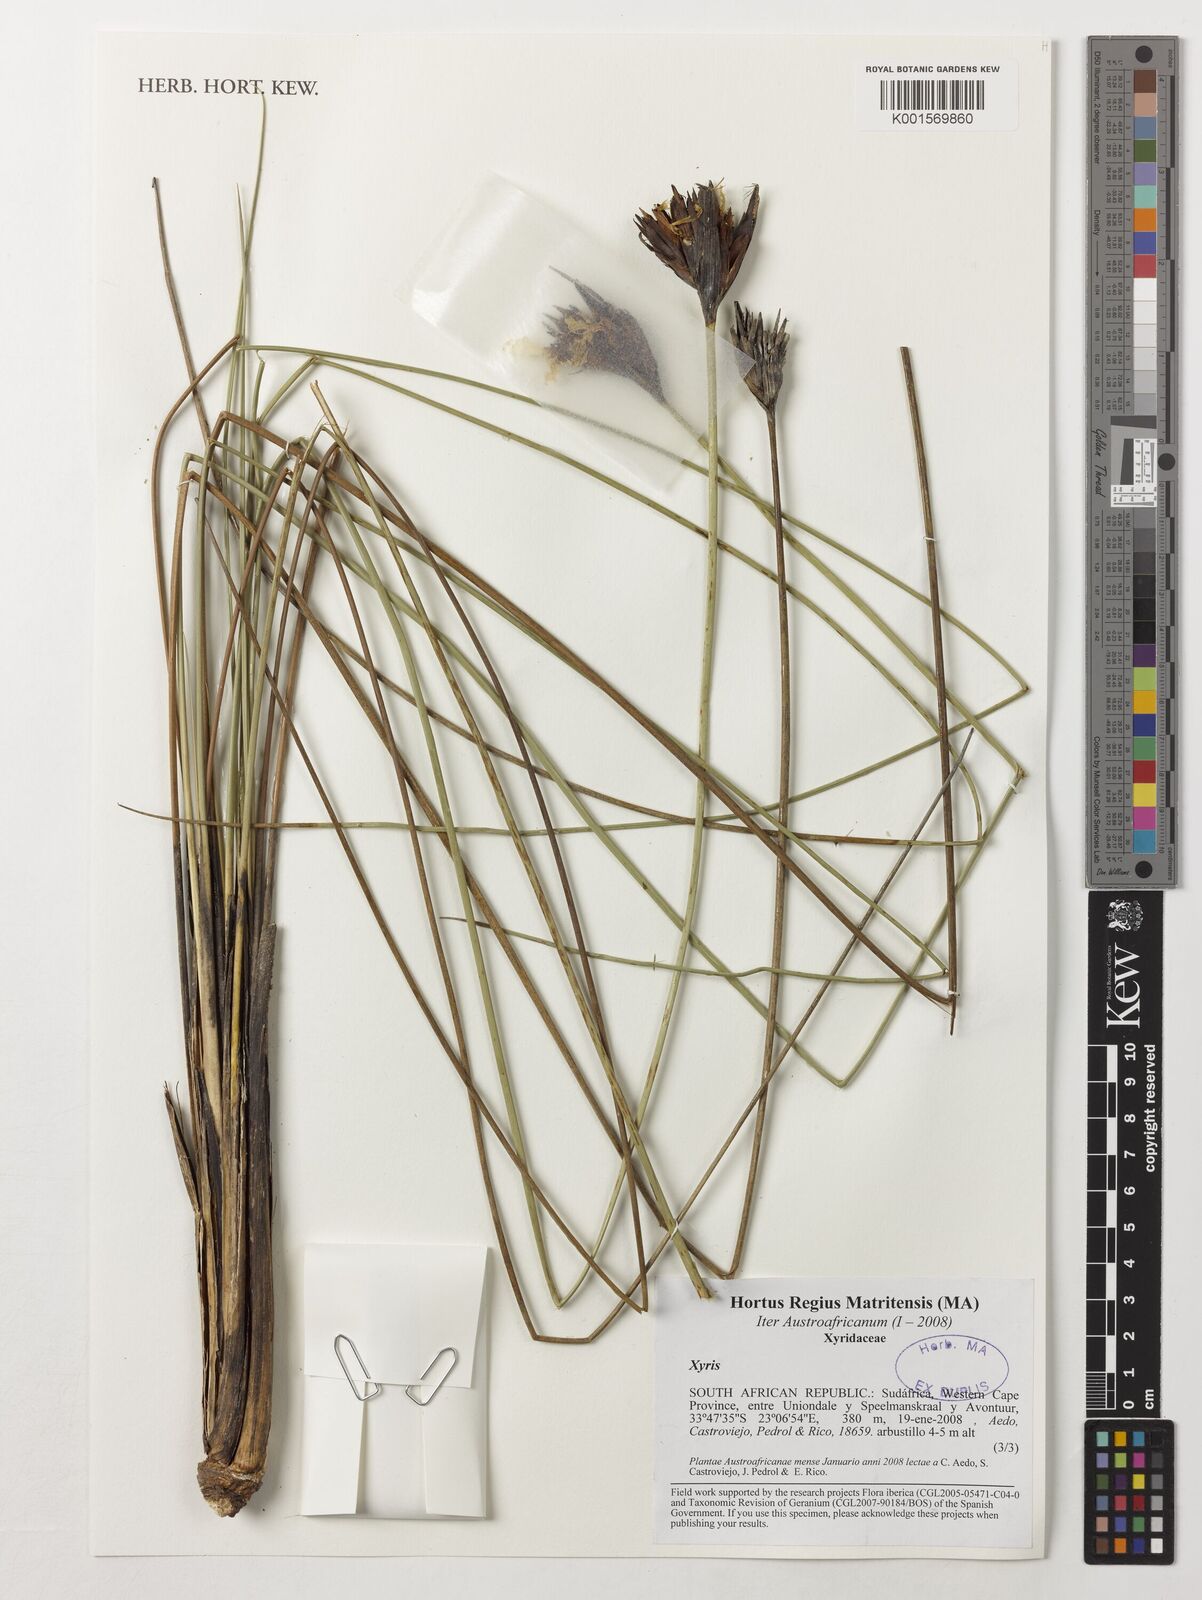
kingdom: Plantae
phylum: Tracheophyta
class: Liliopsida
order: Poales
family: Xyridaceae
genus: Xyris
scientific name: Xyris
